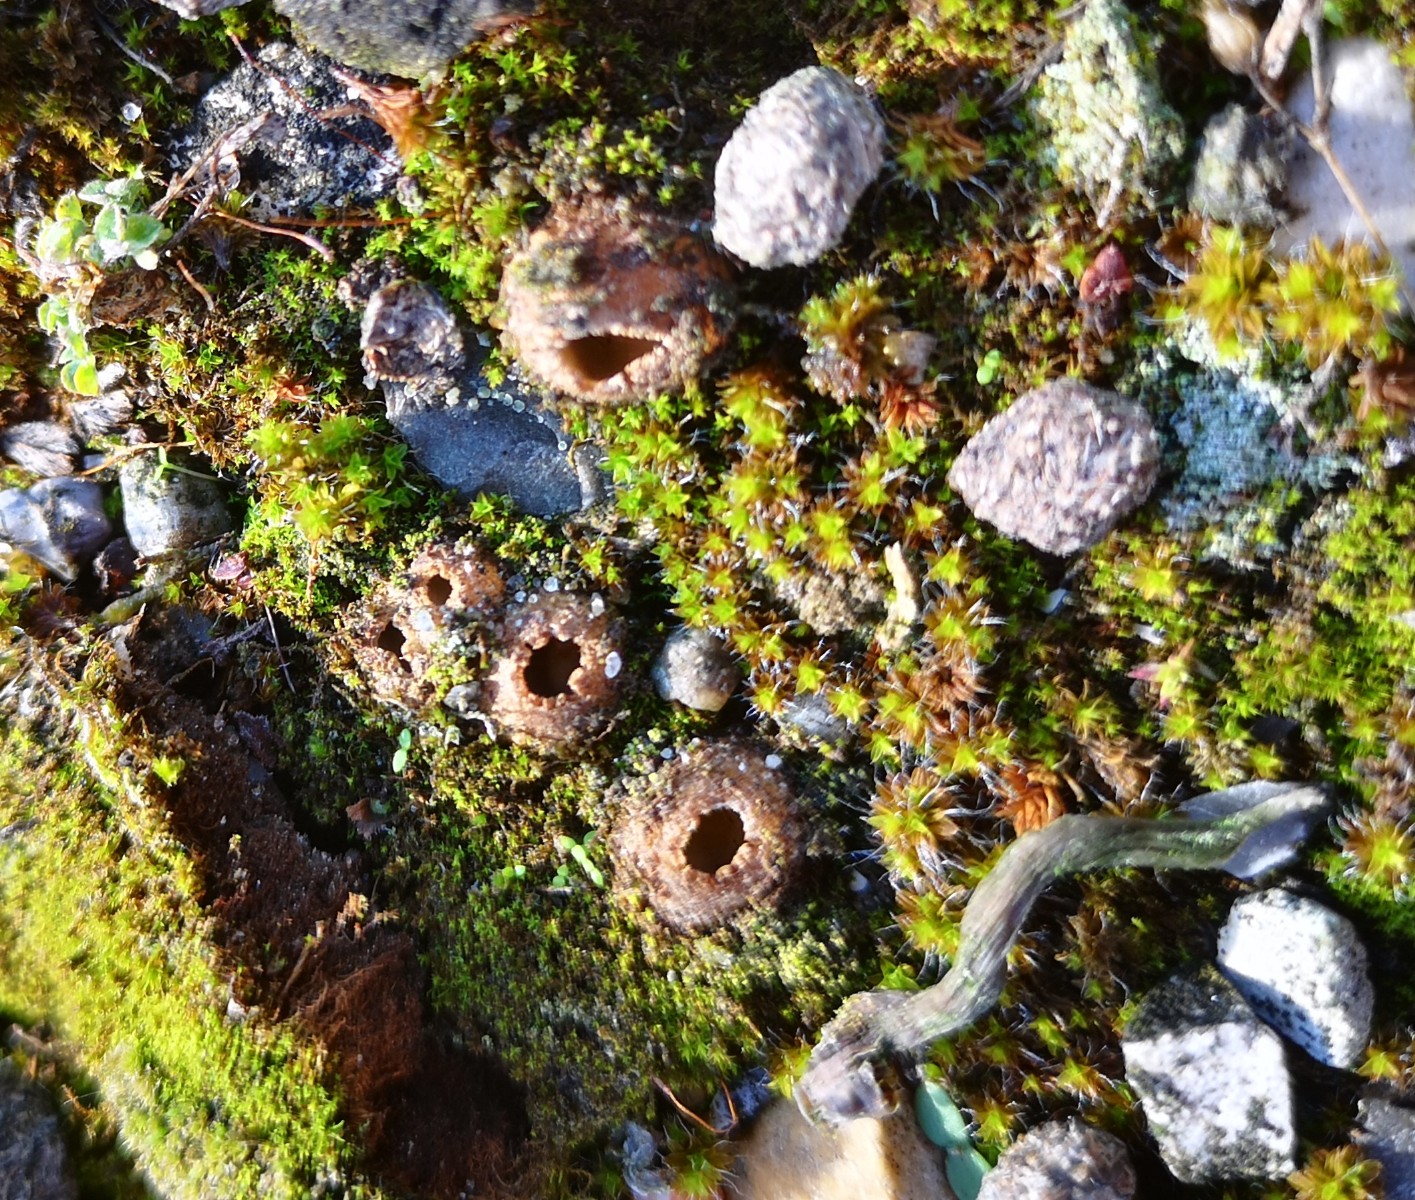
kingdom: Fungi
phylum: Ascomycota
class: Pezizomycetes
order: Pezizales
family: Pyronemataceae
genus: Geopora
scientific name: Geopora arenicola
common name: trøffel-jordbæger
